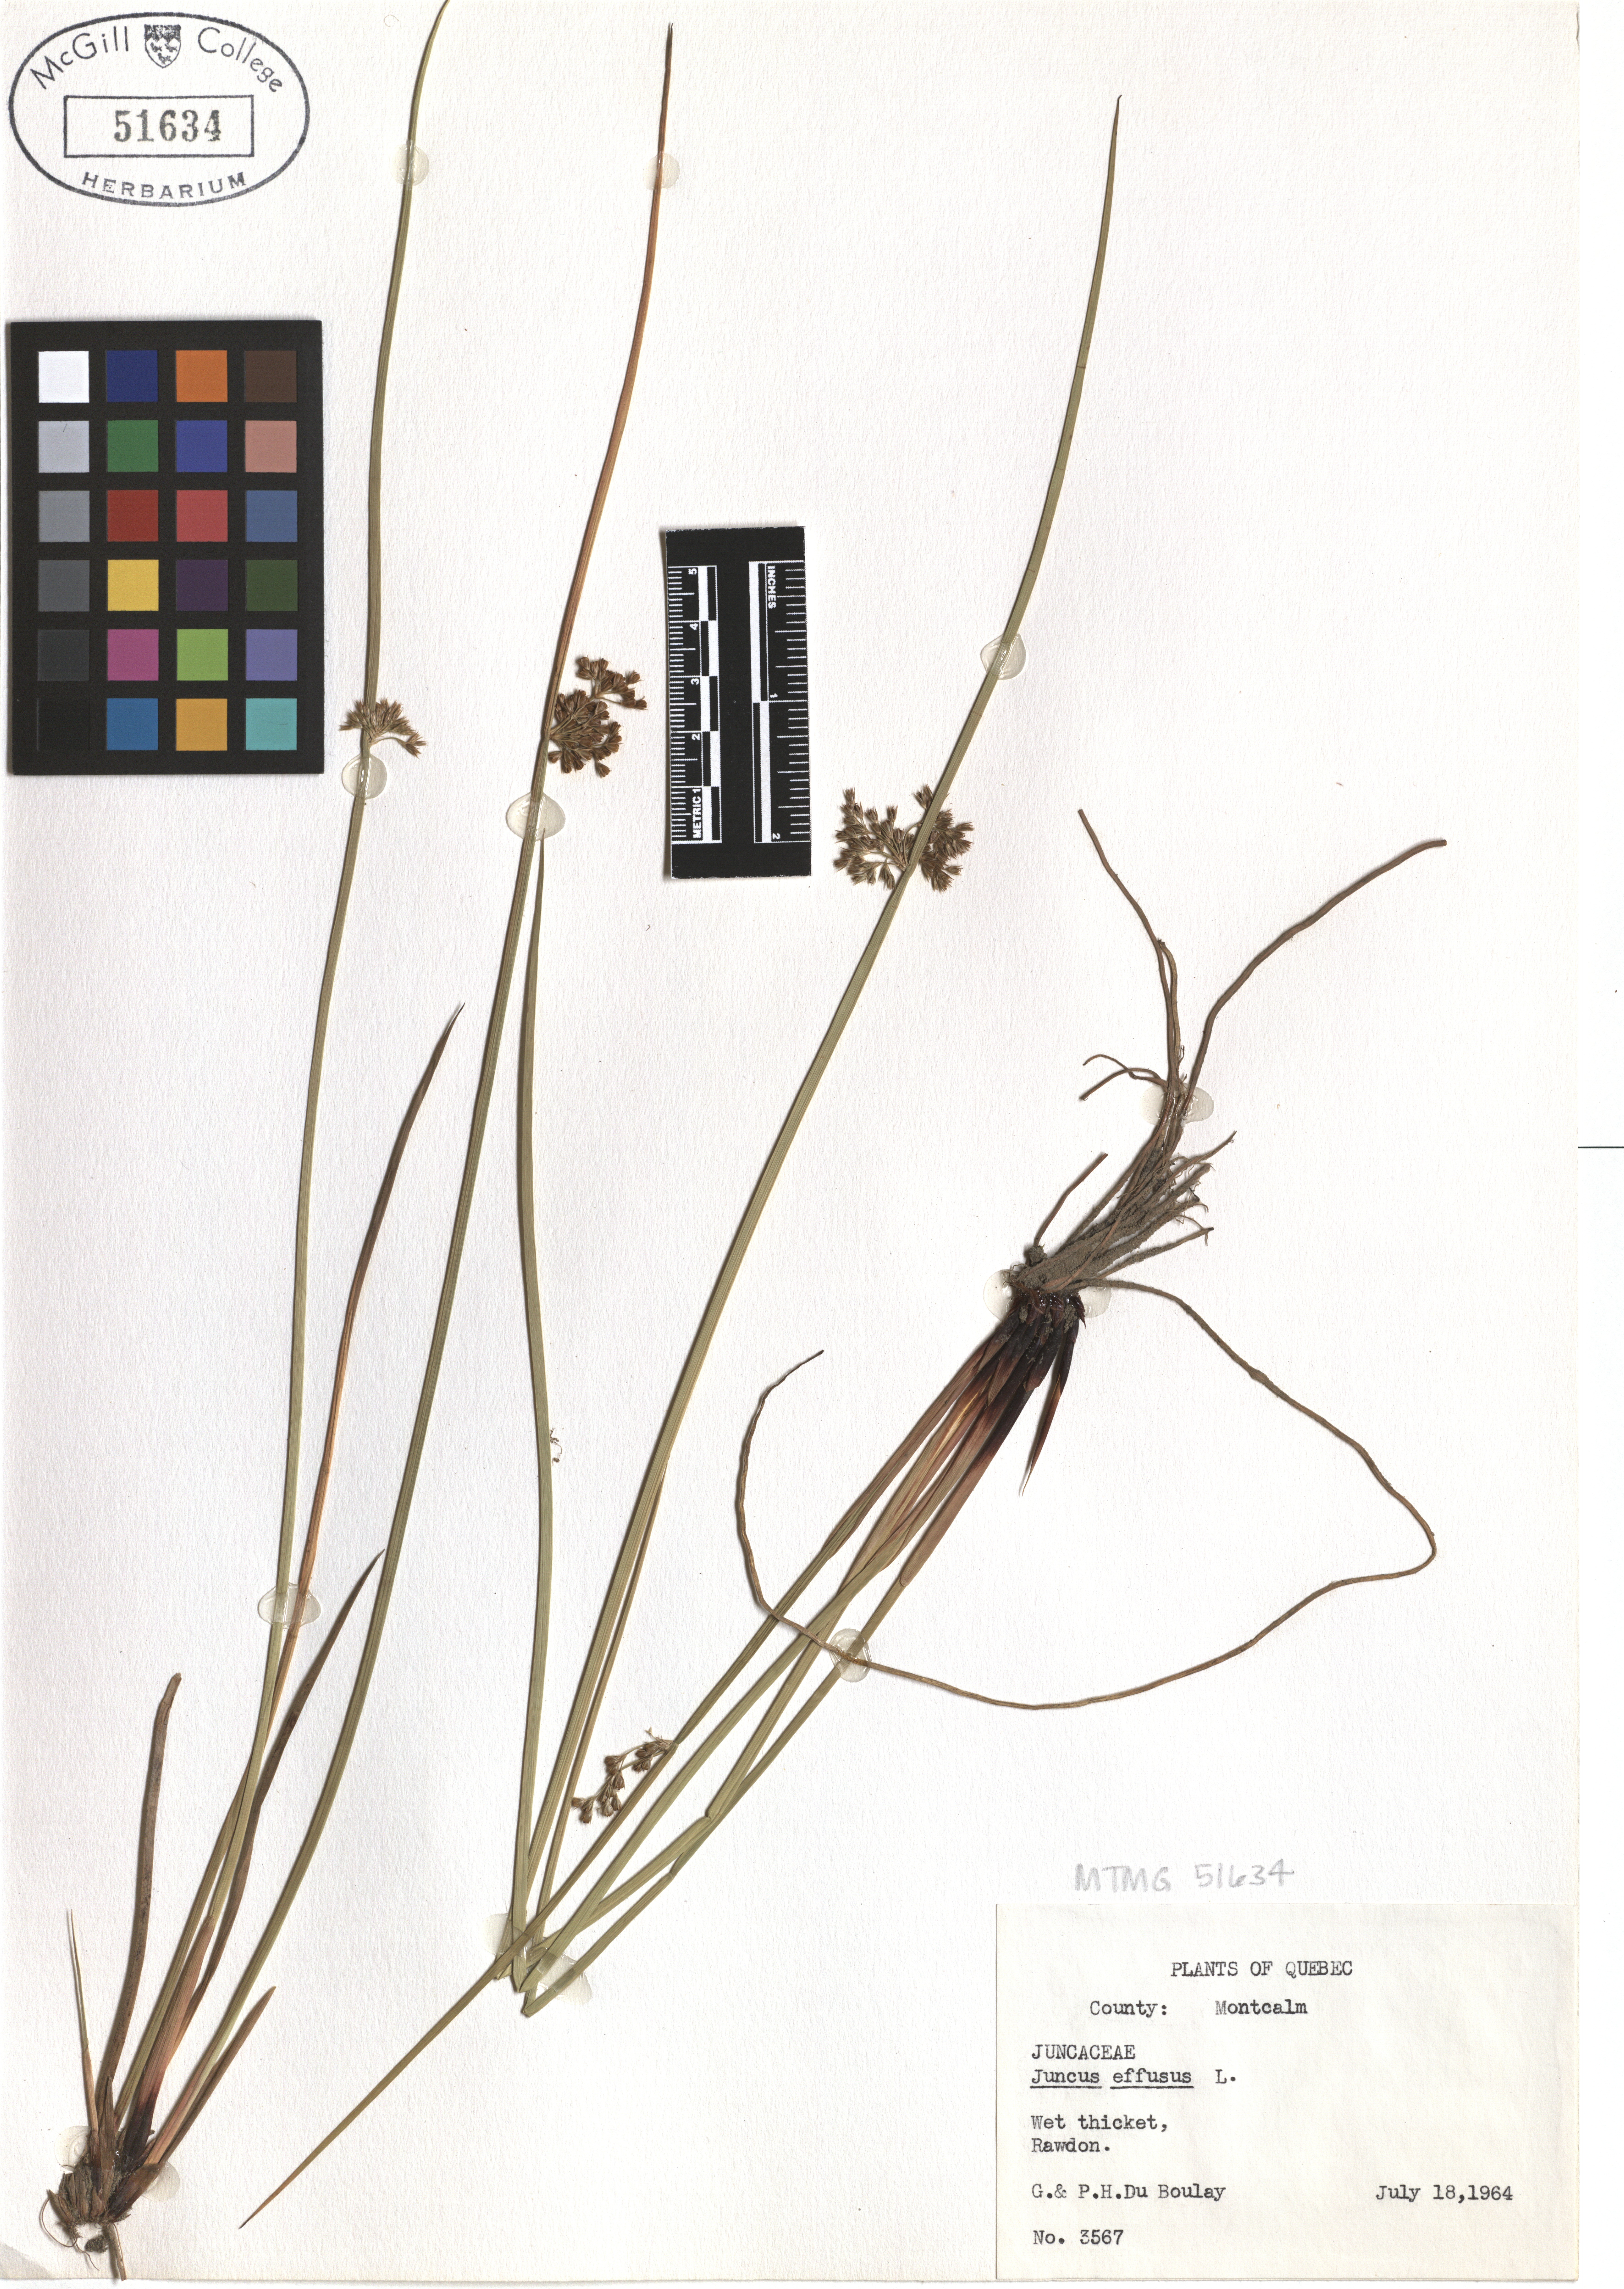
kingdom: Plantae
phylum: Tracheophyta
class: Liliopsida
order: Poales
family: Juncaceae
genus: Juncus
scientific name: Juncus effusus
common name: Soft rush
